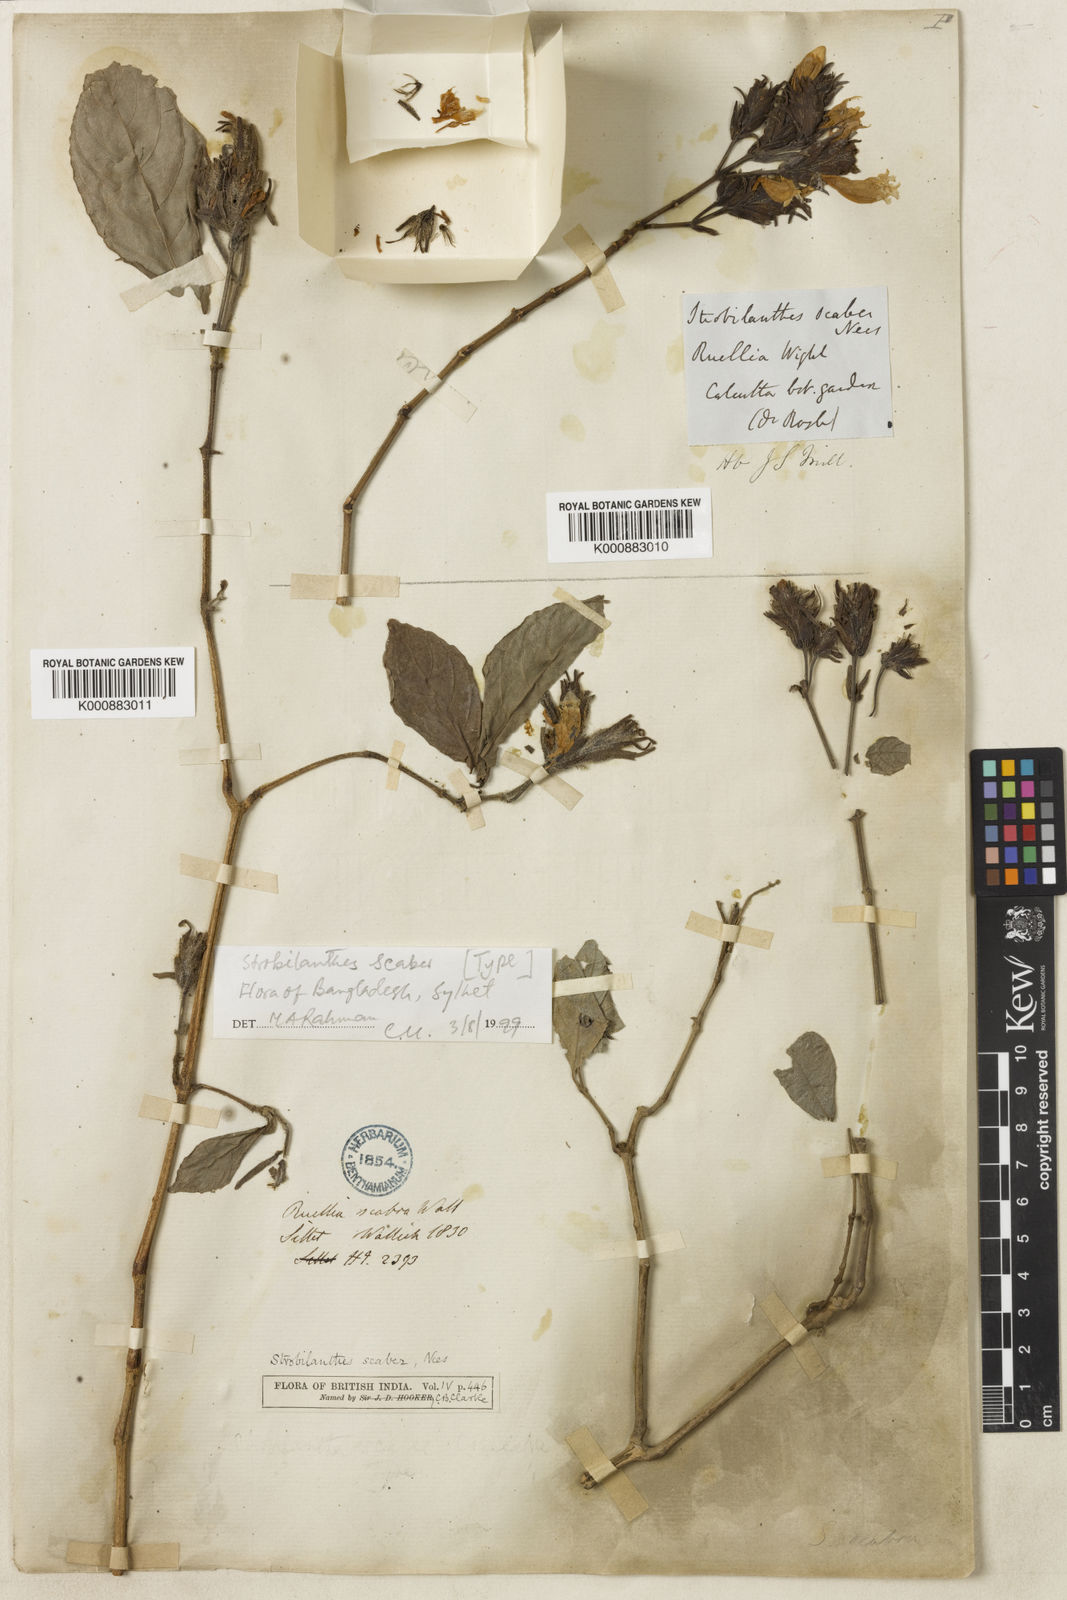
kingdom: Plantae
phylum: Tracheophyta
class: Magnoliopsida
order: Lamiales
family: Acanthaceae
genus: Strobilanthes
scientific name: Strobilanthes
